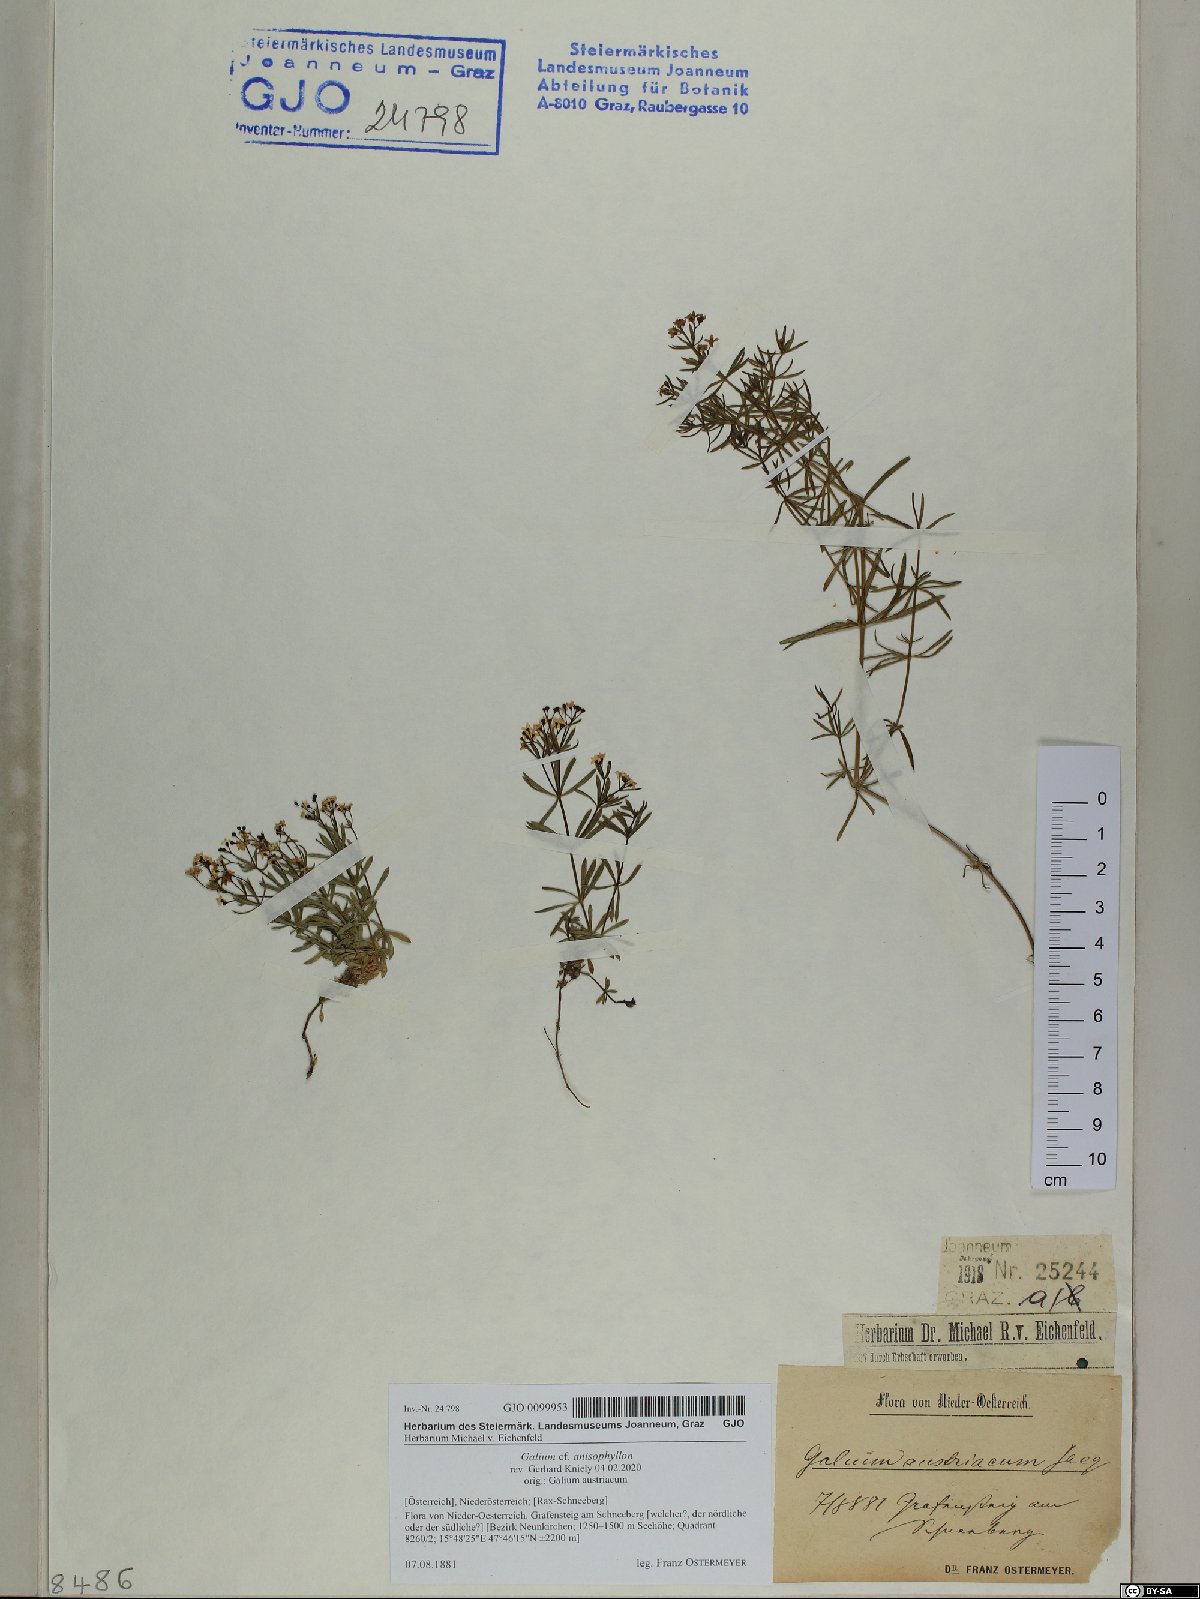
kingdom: Plantae
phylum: Tracheophyta
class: Magnoliopsida
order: Gentianales
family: Rubiaceae
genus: Galium
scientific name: Galium anisophyllon
